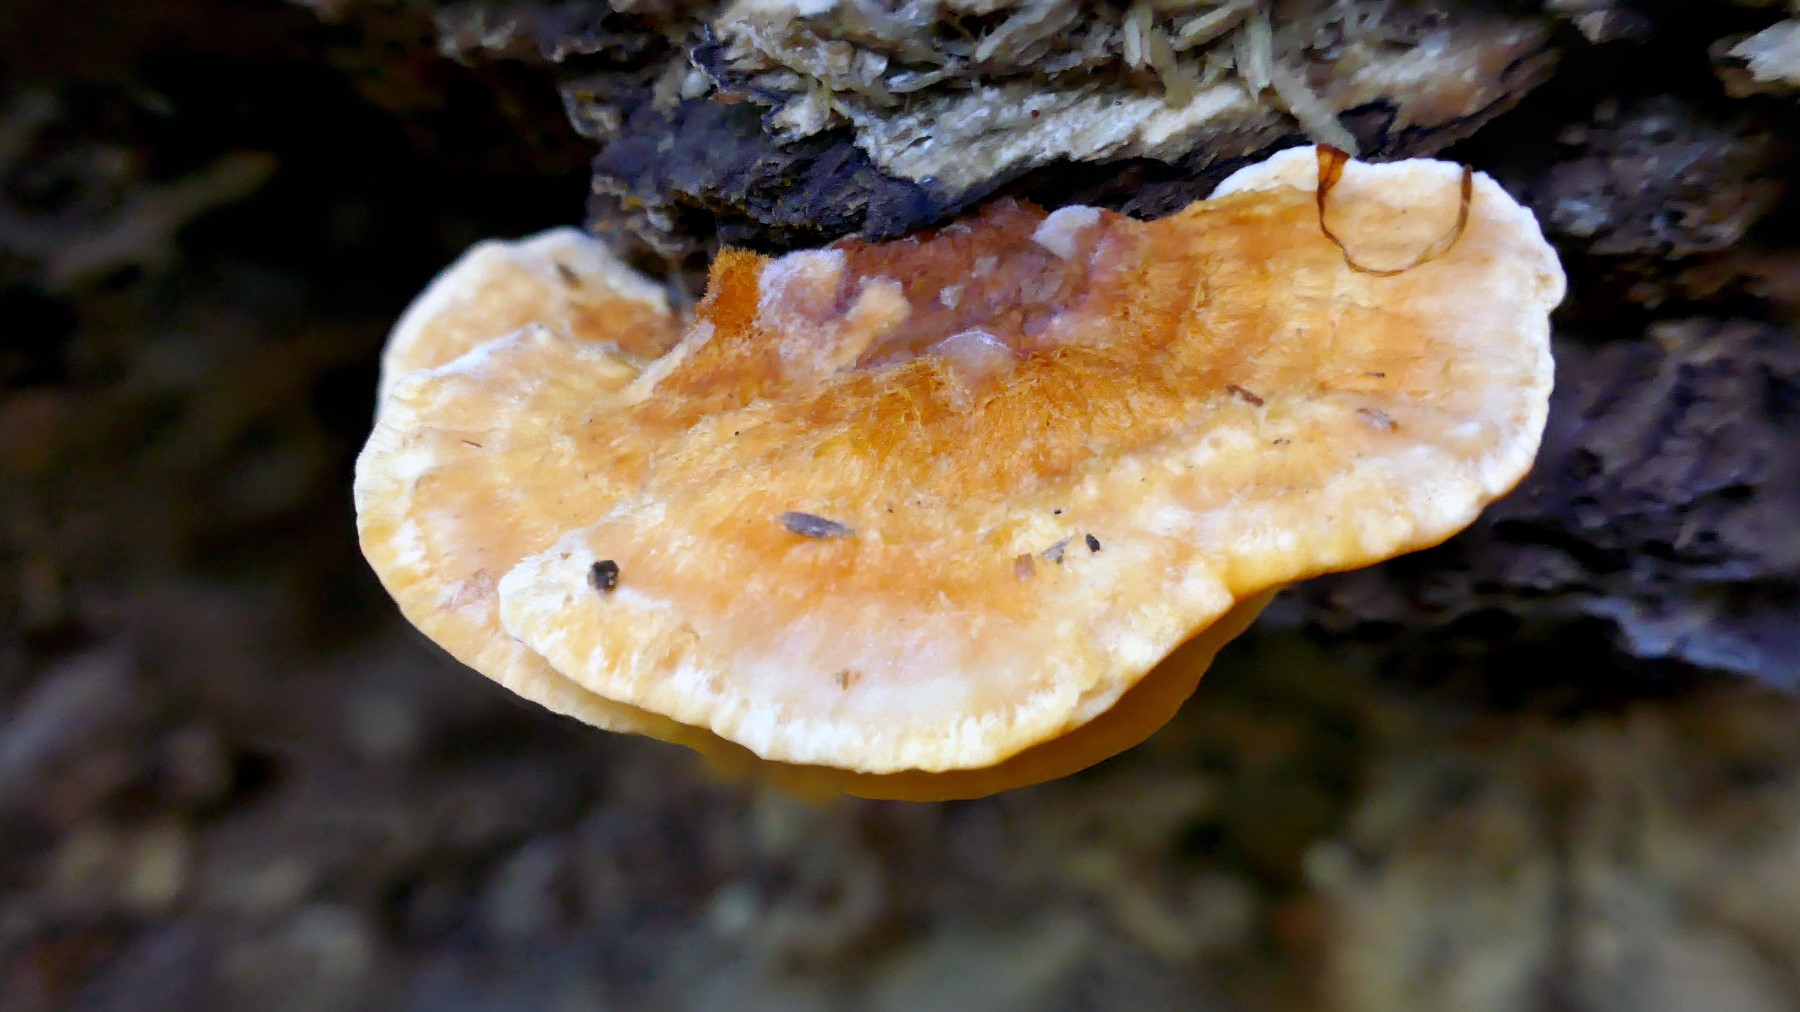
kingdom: Fungi
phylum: Basidiomycota
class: Agaricomycetes
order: Polyporales
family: Pycnoporellaceae
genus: Pycnoporellus
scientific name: Pycnoporellus fulgens
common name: flammeporesvamp
